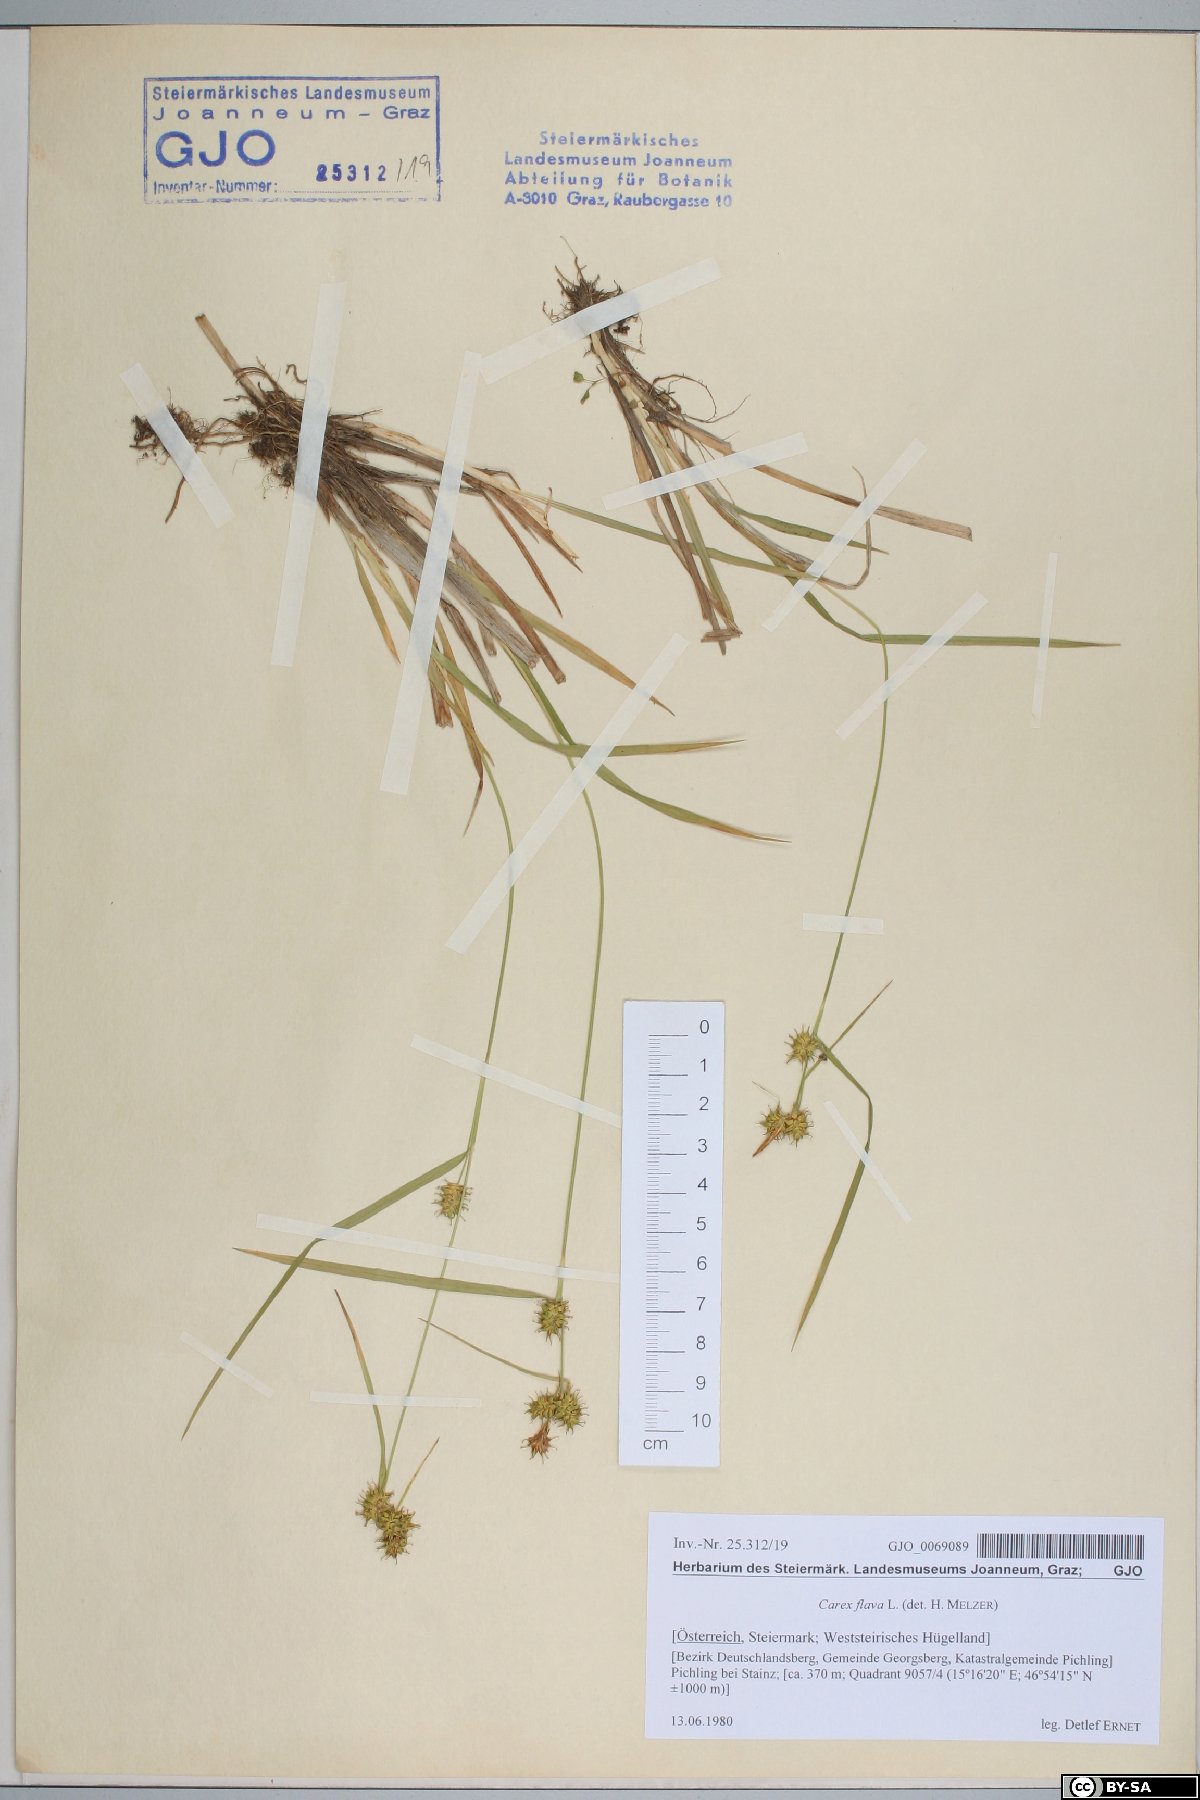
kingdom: Plantae
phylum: Tracheophyta
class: Liliopsida
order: Poales
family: Cyperaceae
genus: Carex
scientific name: Carex flava
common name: Large yellow-sedge
